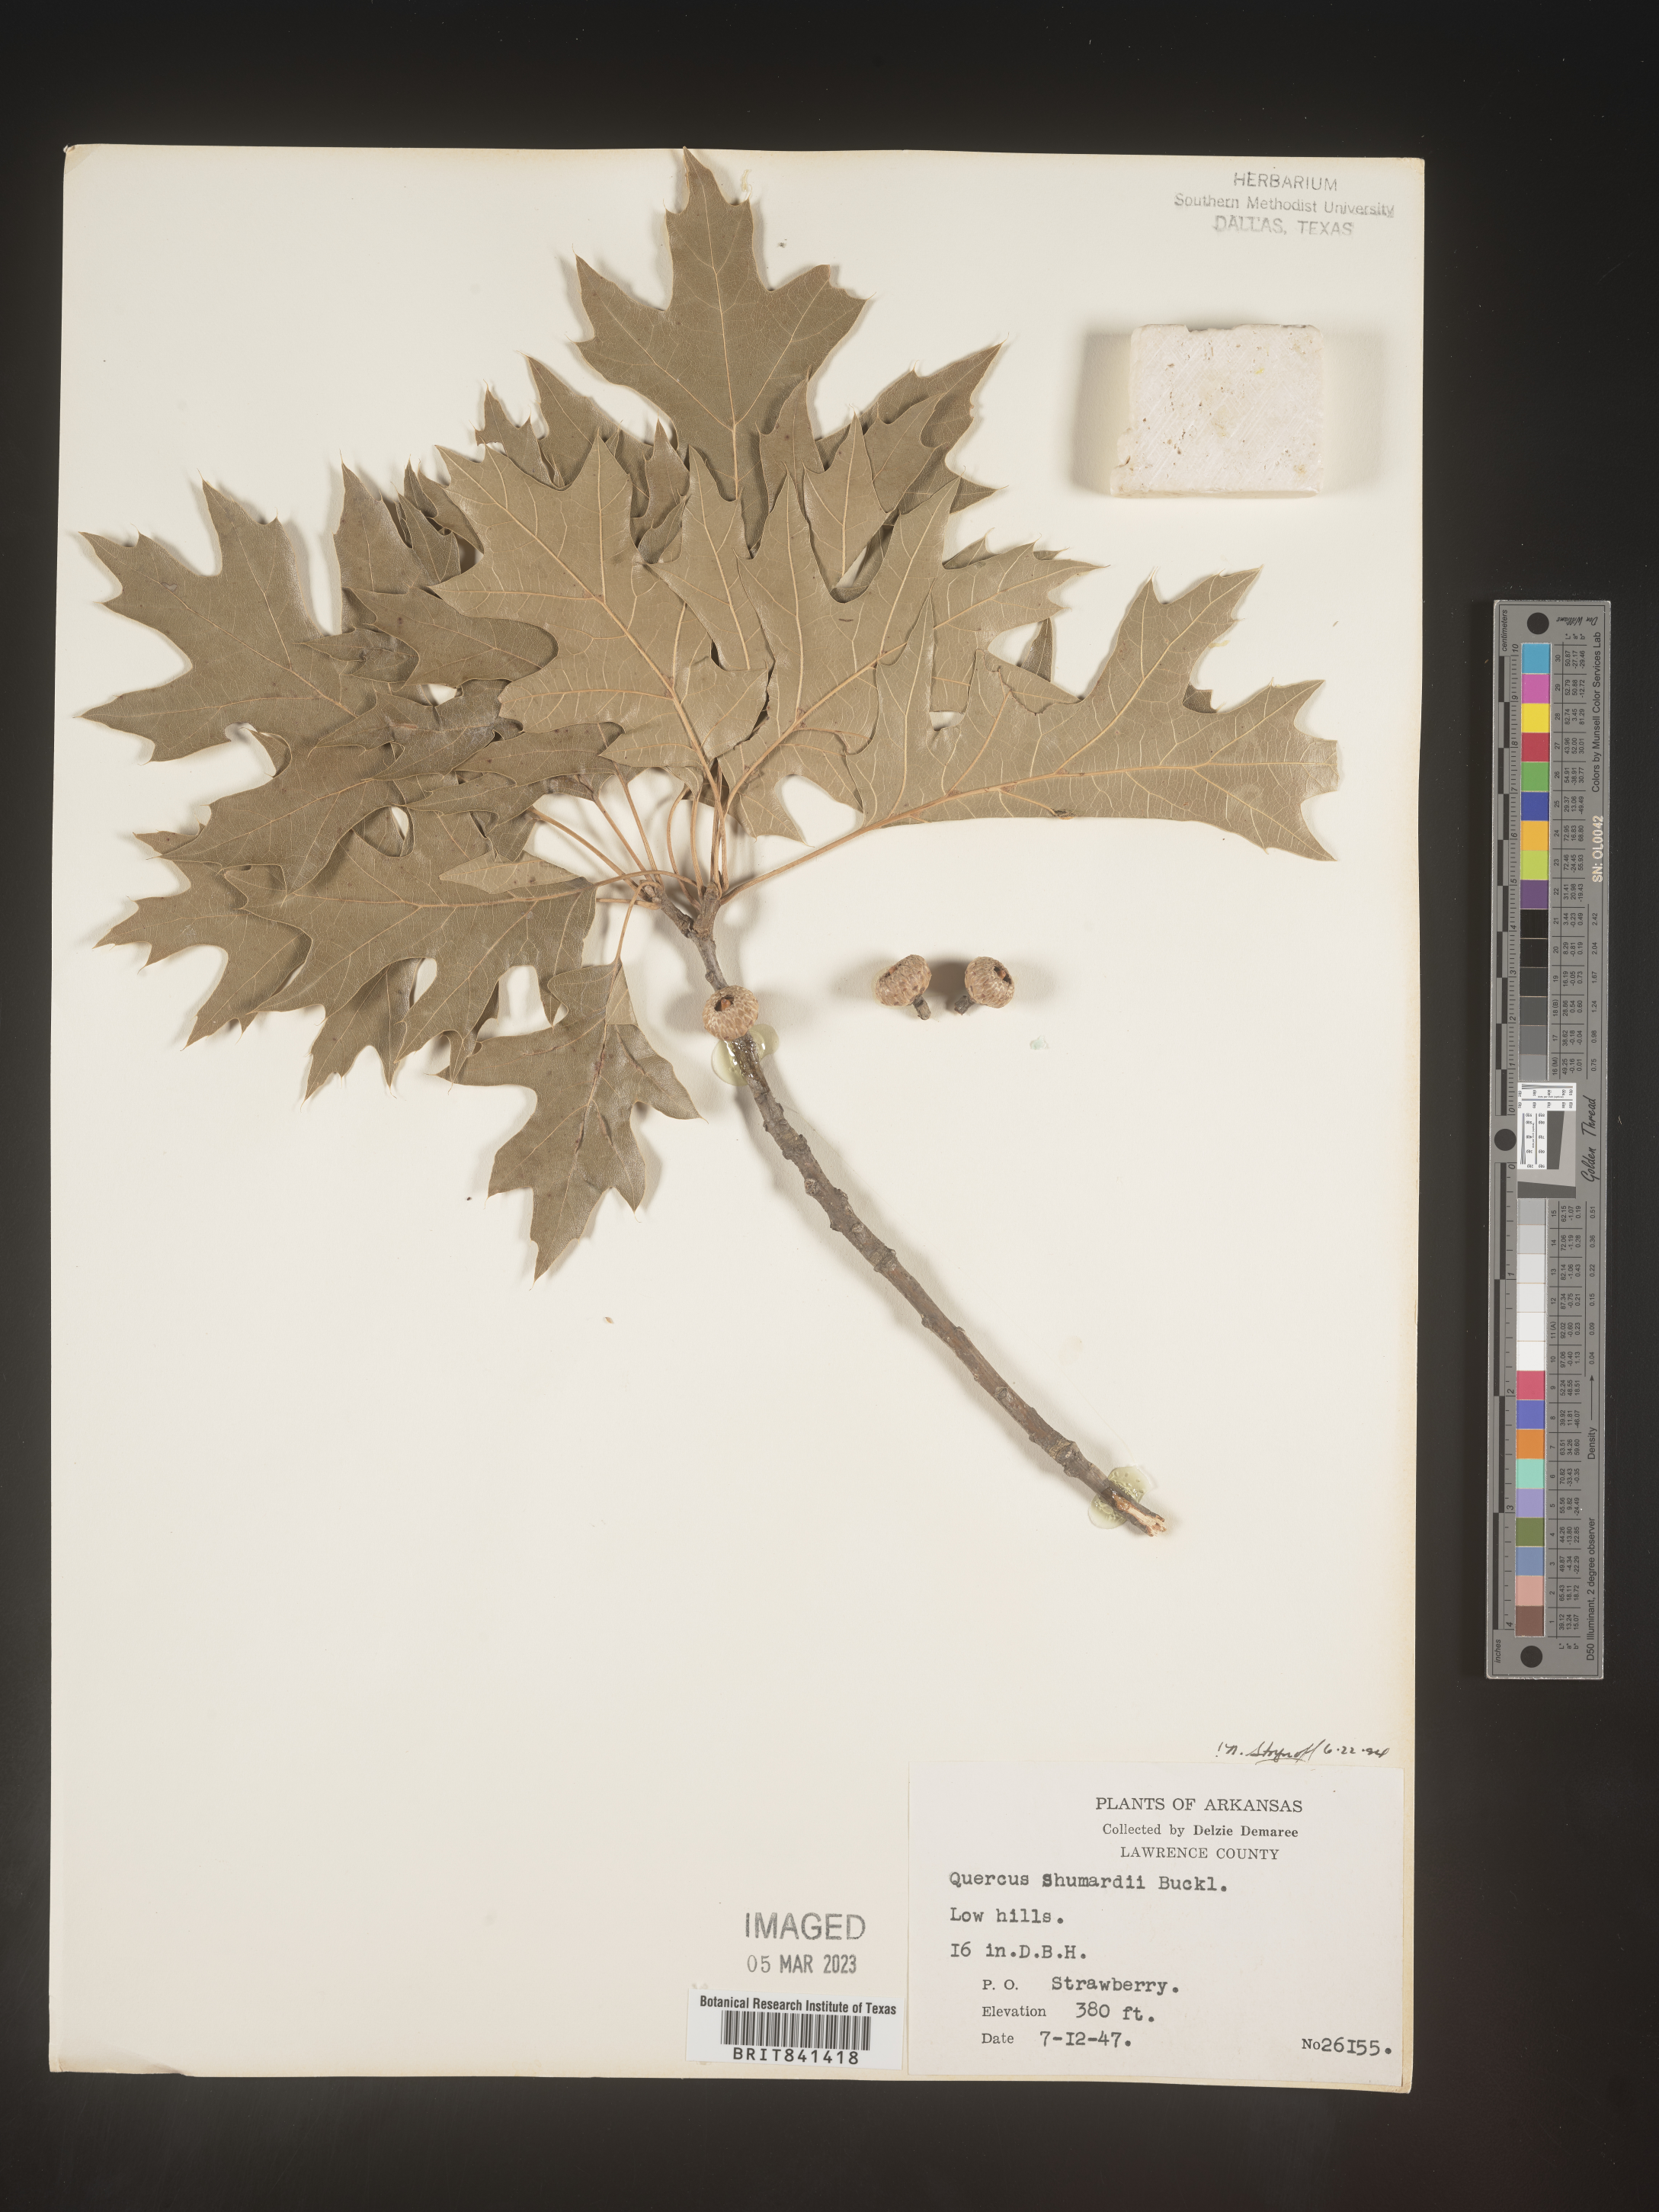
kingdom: Plantae
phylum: Tracheophyta
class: Magnoliopsida
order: Fagales
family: Fagaceae
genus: Quercus
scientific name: Quercus shumardii
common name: Shumard oak
